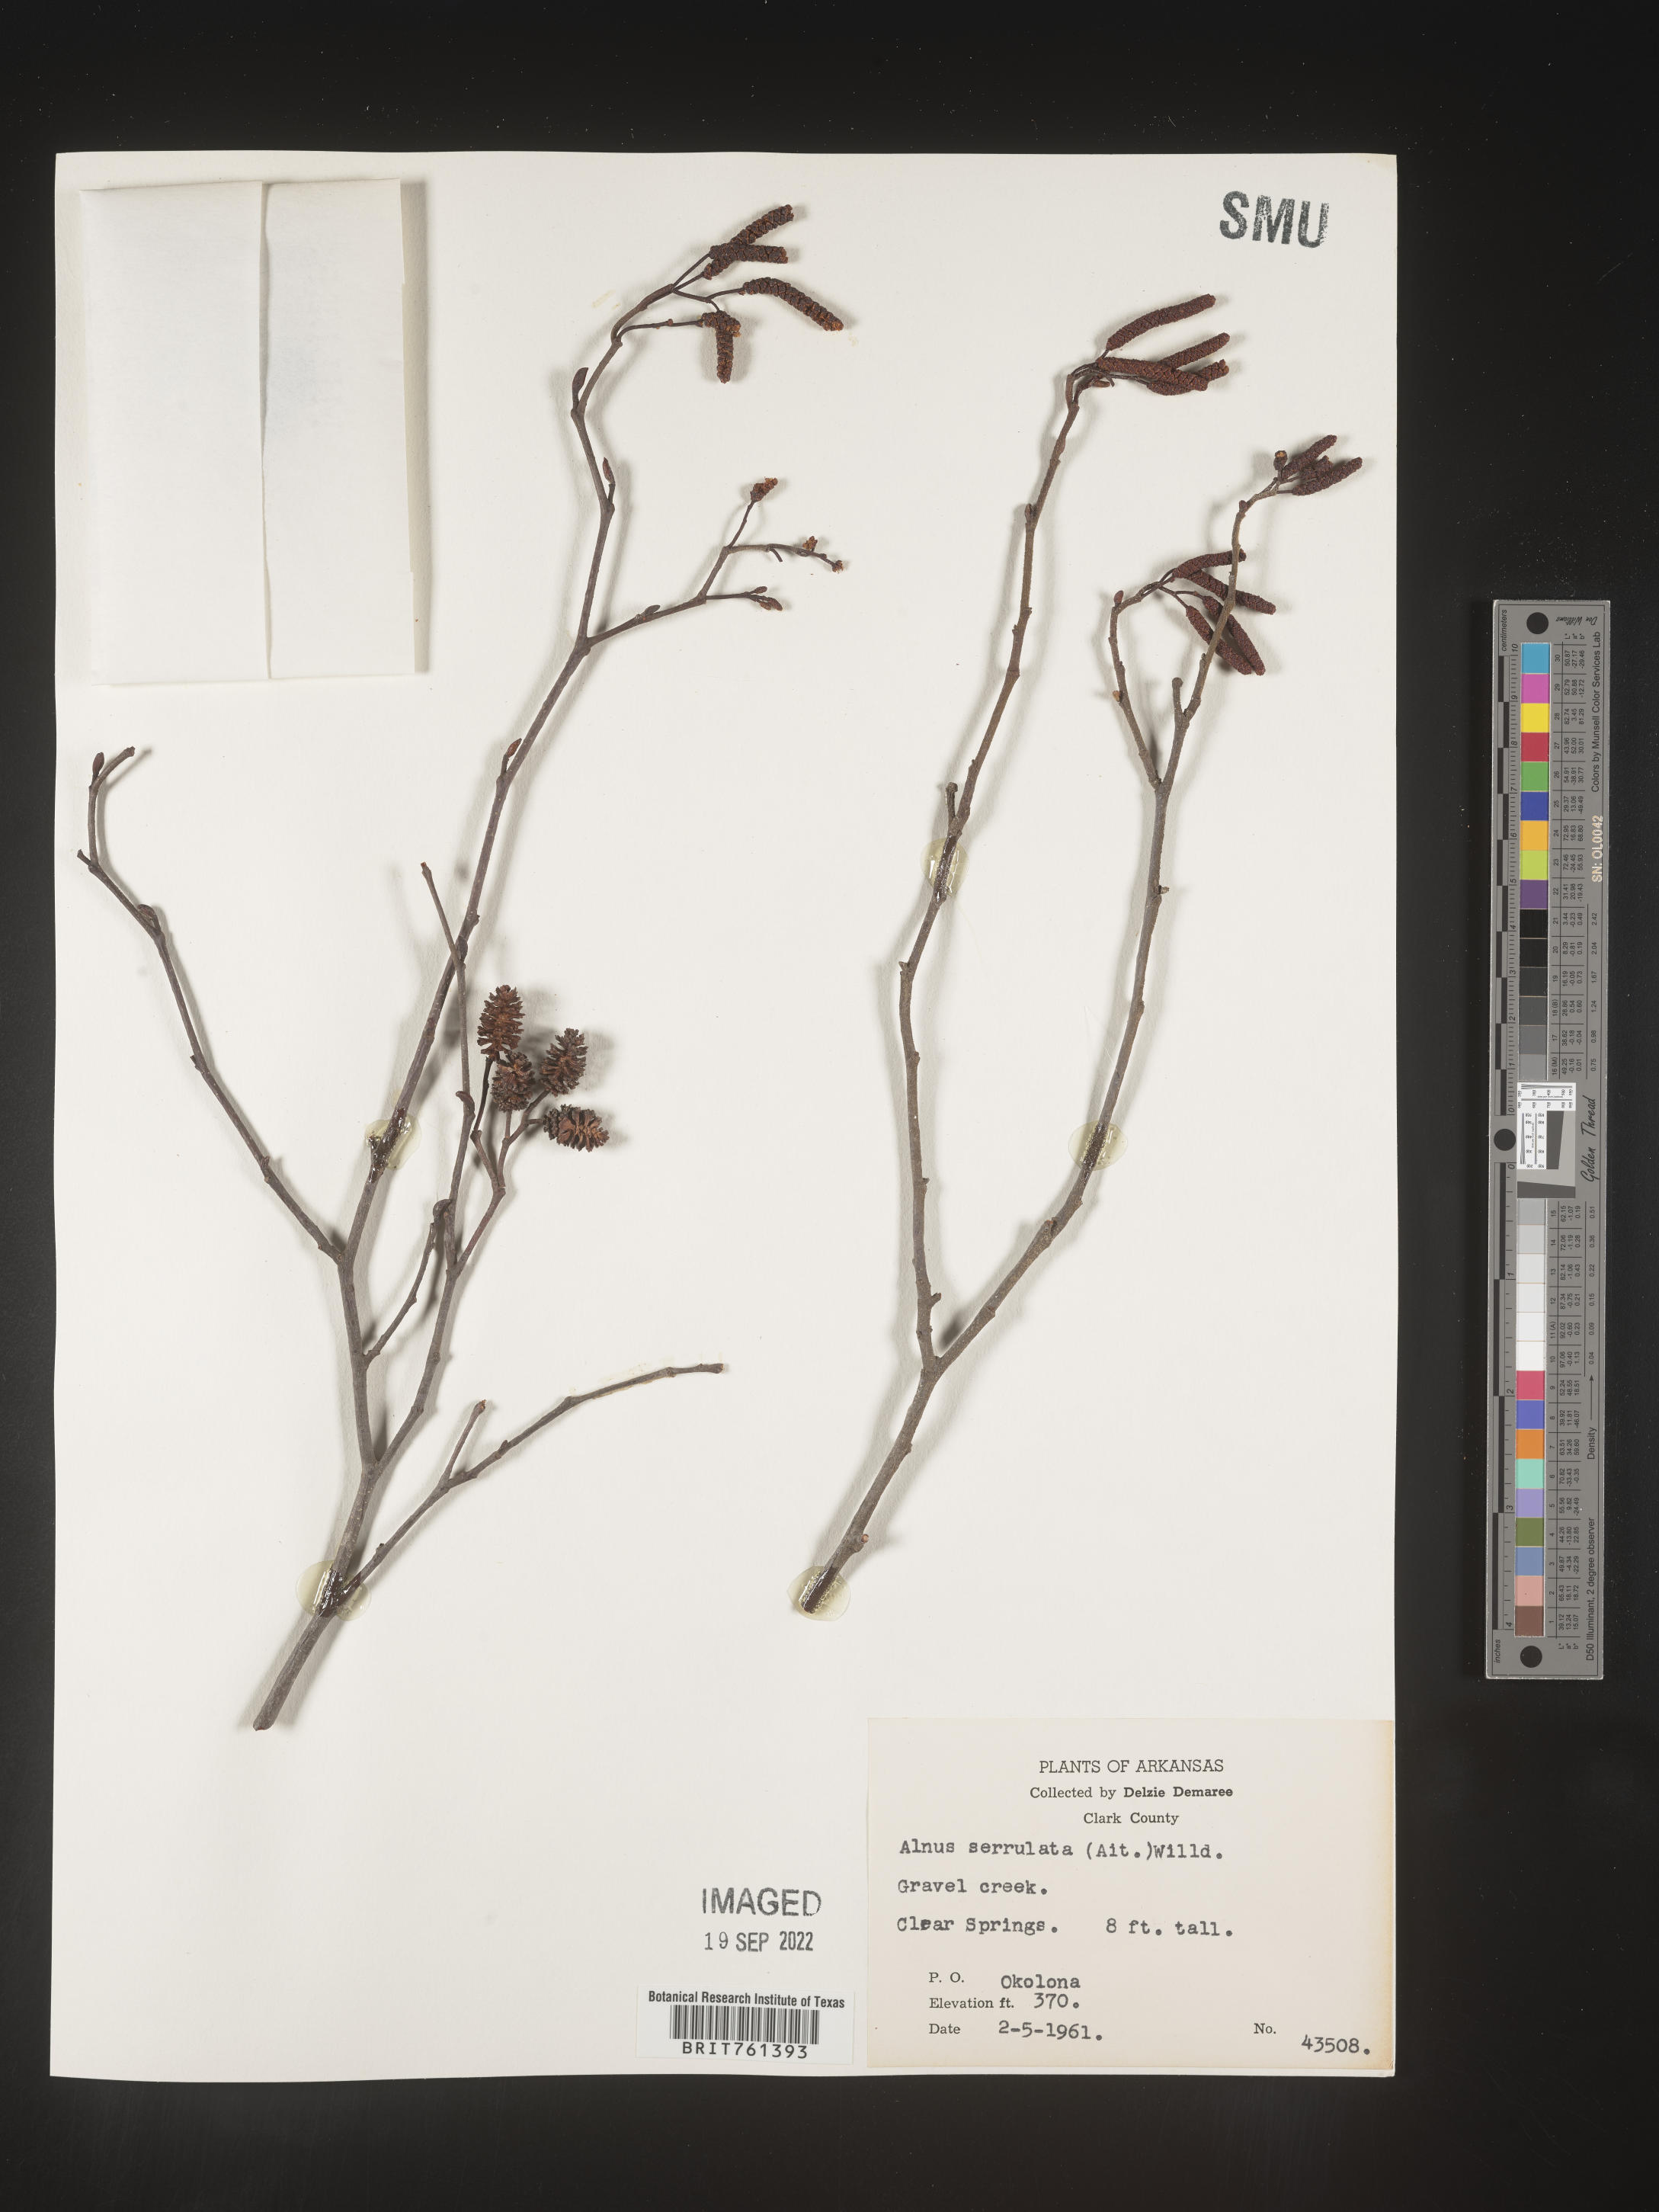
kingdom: Plantae
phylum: Tracheophyta
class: Magnoliopsida
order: Fagales
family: Betulaceae
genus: Alnus
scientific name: Alnus serrulata
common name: Hazel alder
